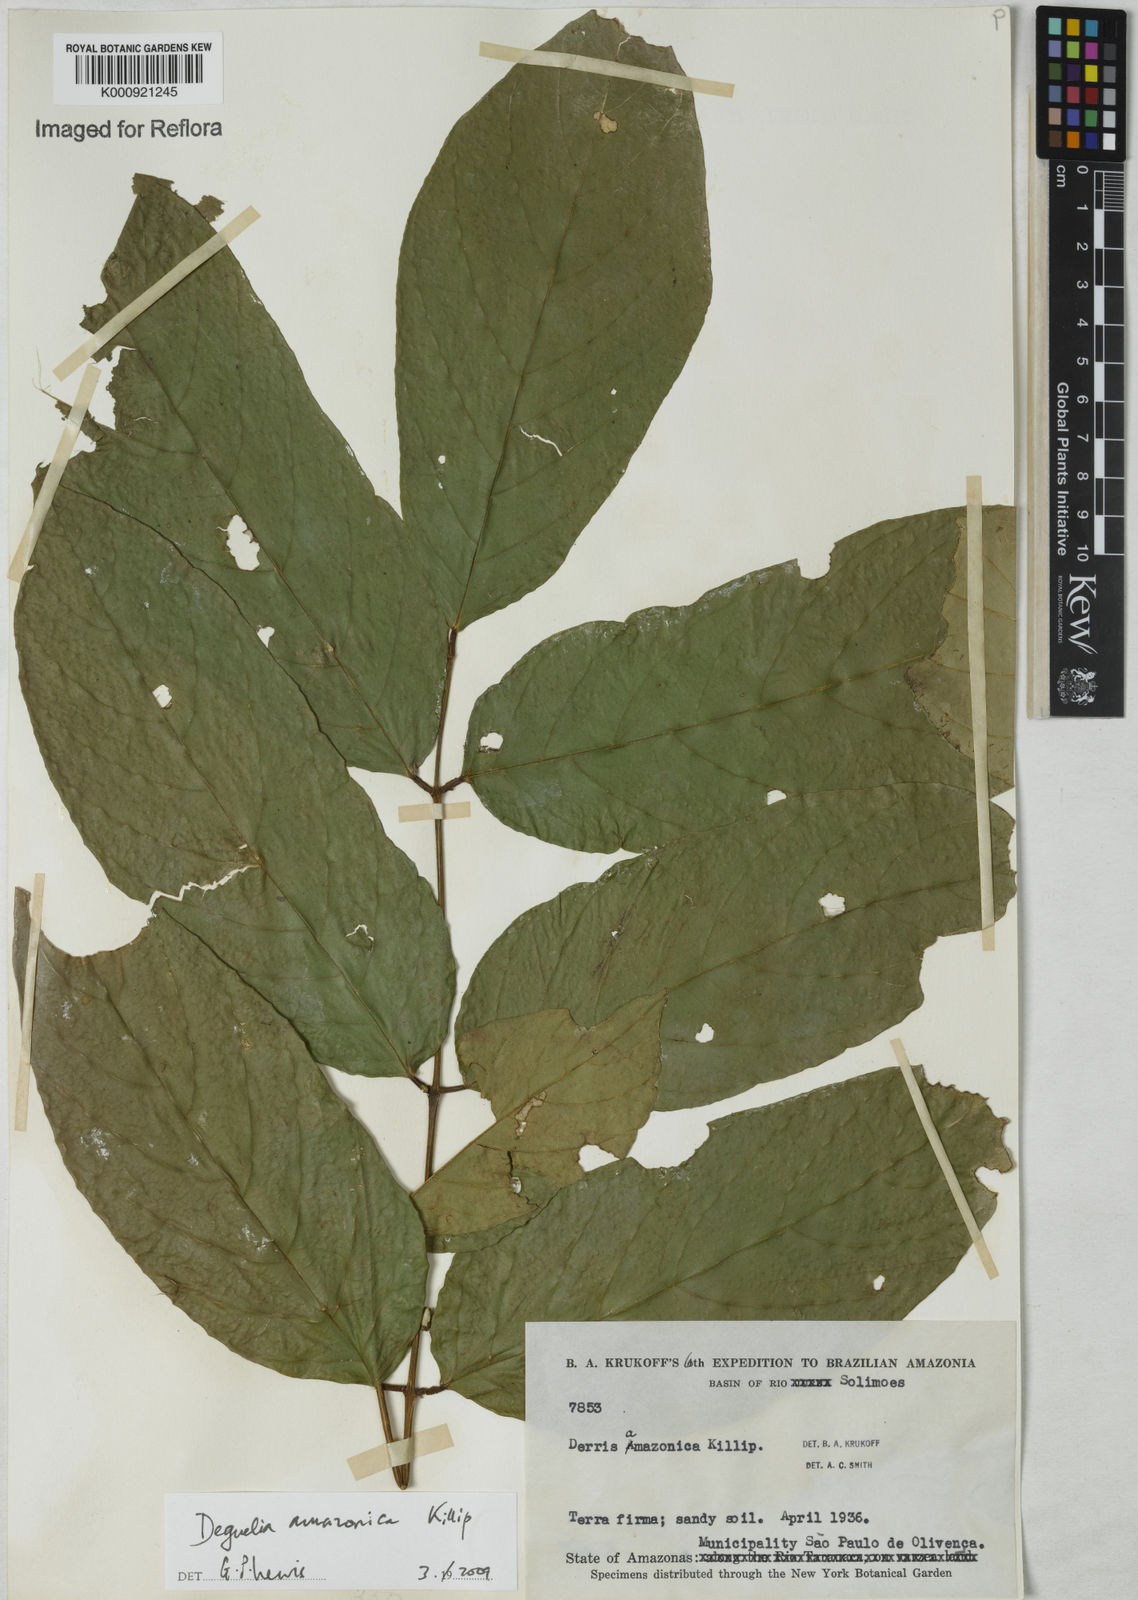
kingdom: Plantae
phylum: Tracheophyta
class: Magnoliopsida
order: Fabales
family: Fabaceae
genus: Deguelia
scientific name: Deguelia amazonica
